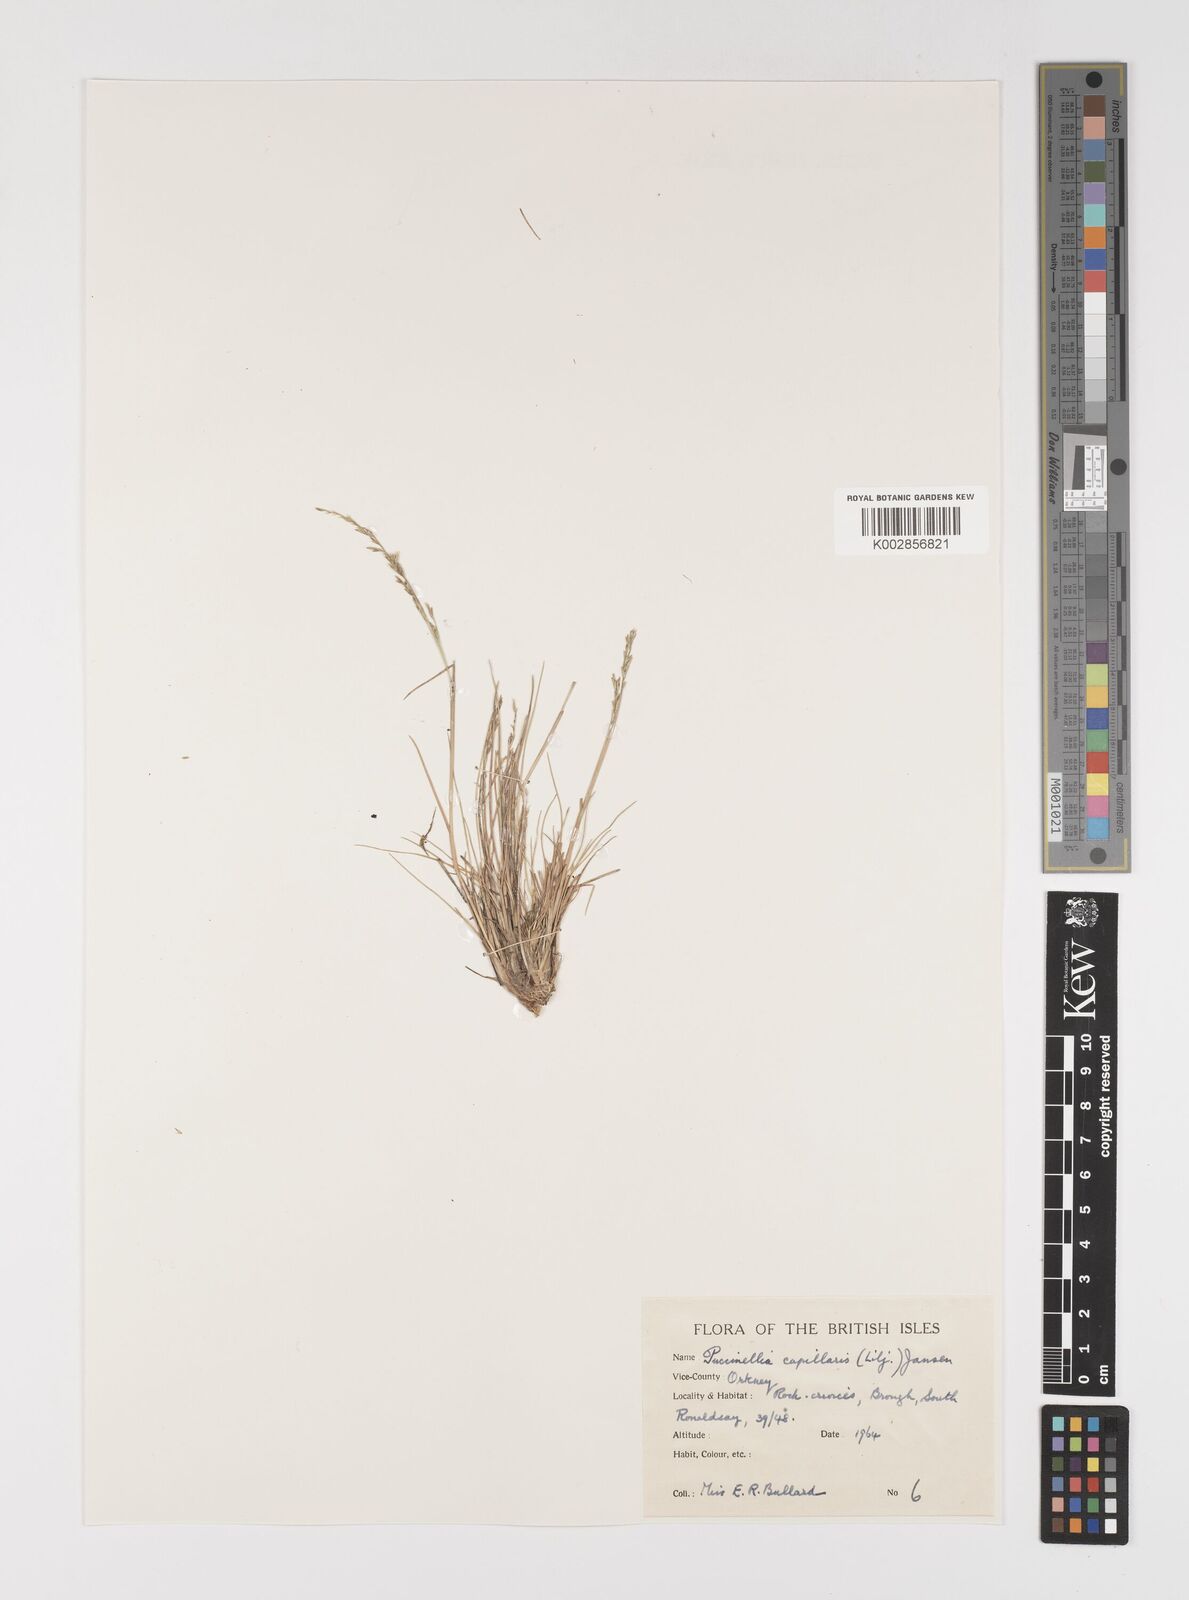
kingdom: Plantae
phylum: Tracheophyta
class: Liliopsida
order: Poales
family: Poaceae
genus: Puccinellia
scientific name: Puccinellia distans
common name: Weeping alkaligrass
